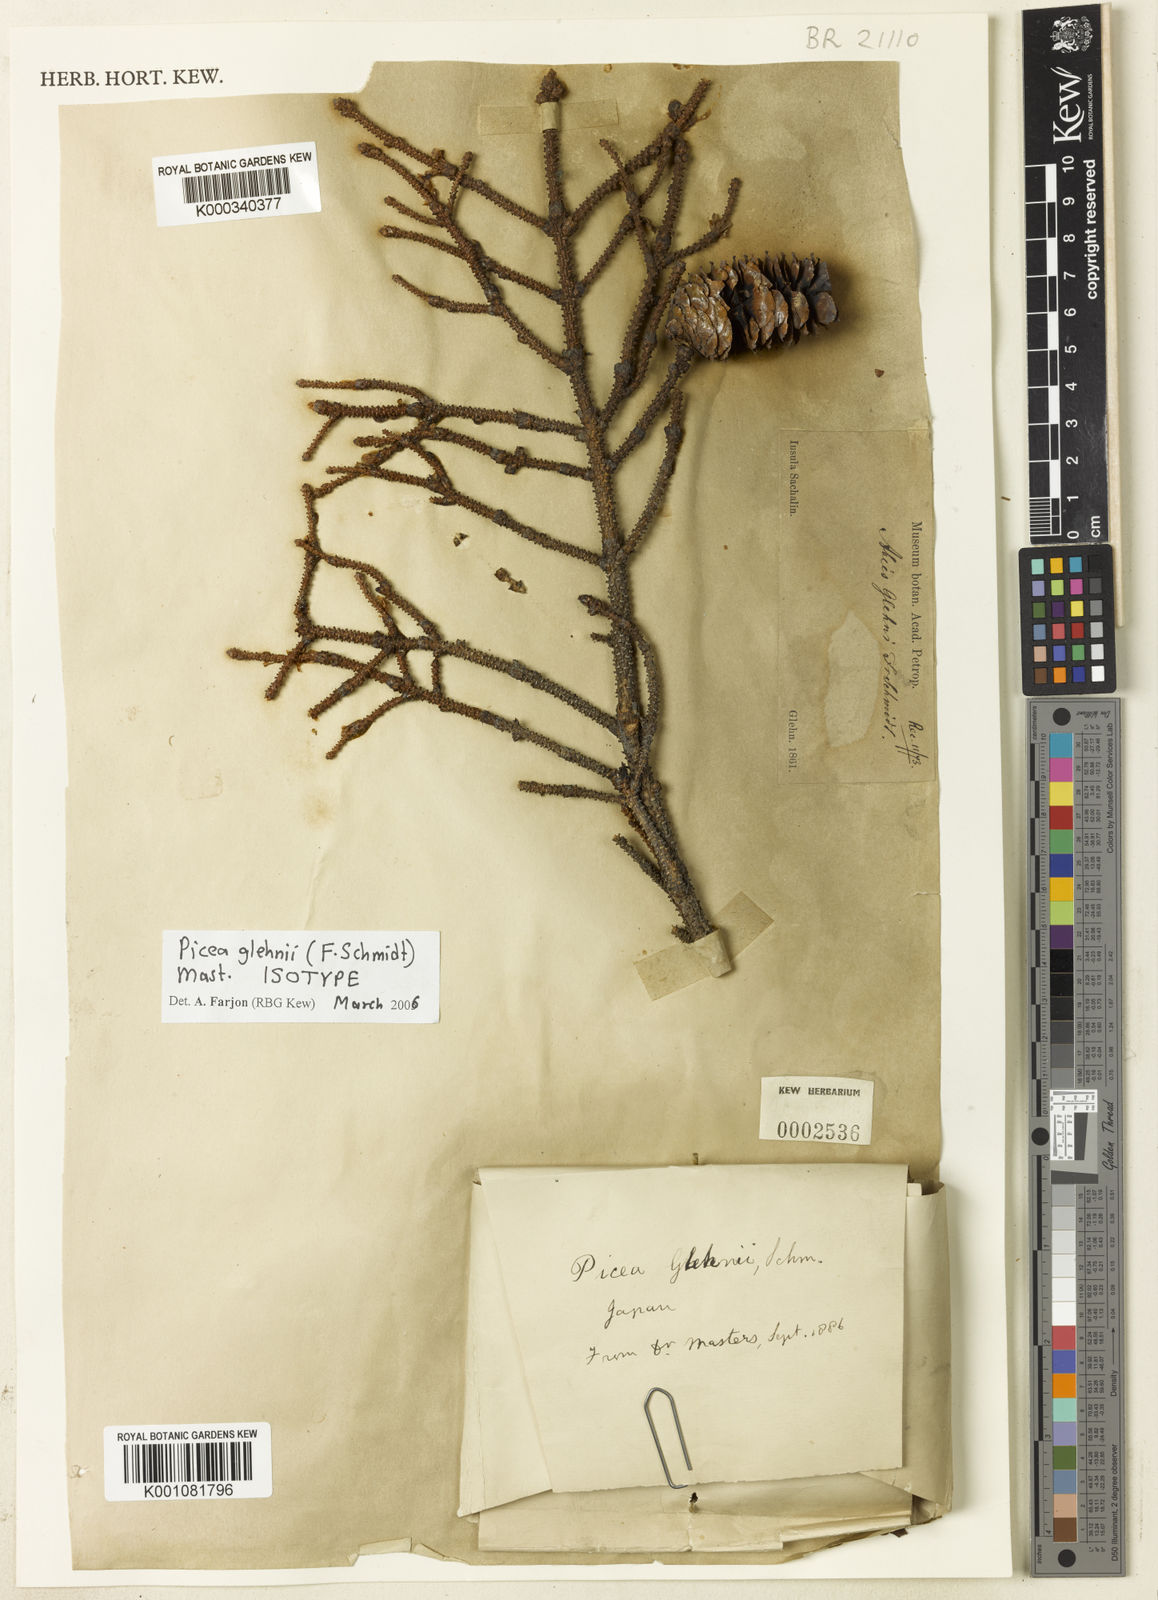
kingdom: Plantae
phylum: Tracheophyta
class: Pinopsida
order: Pinales
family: Pinaceae
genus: Picea
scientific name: Picea glehnii
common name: Sakhalin spruce
